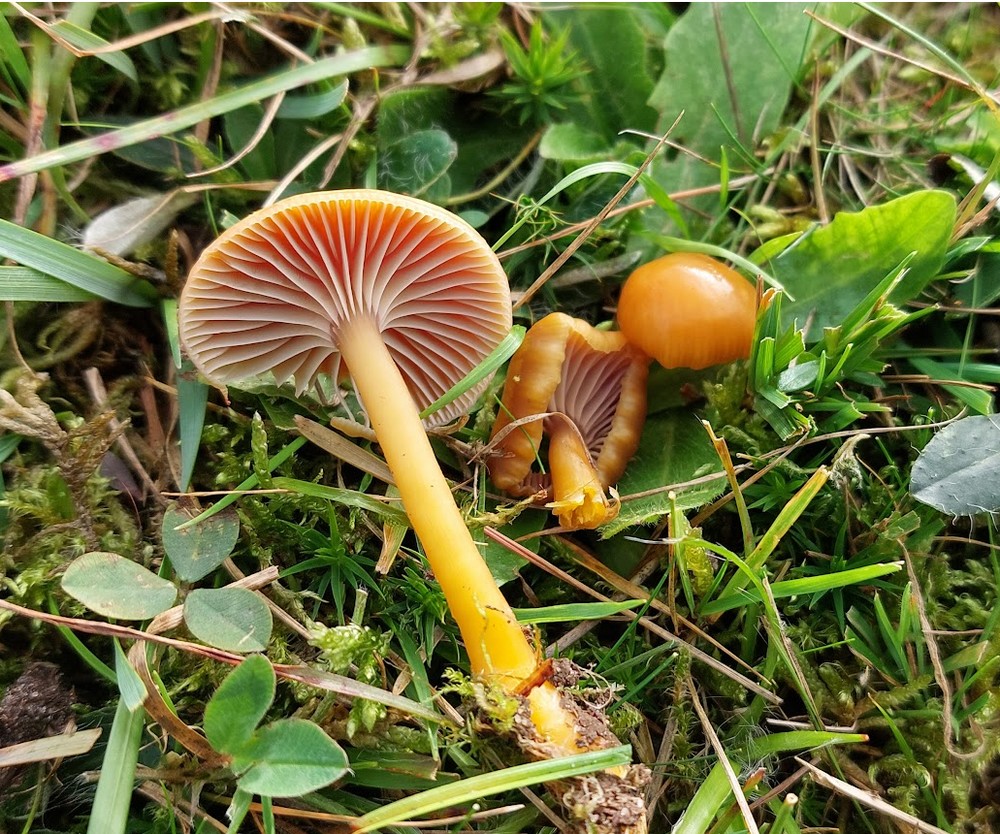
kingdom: Fungi
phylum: Basidiomycota
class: Agaricomycetes
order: Agaricales
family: Hygrophoraceae
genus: Gliophorus
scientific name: Gliophorus laetus
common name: brusk-vokshat
